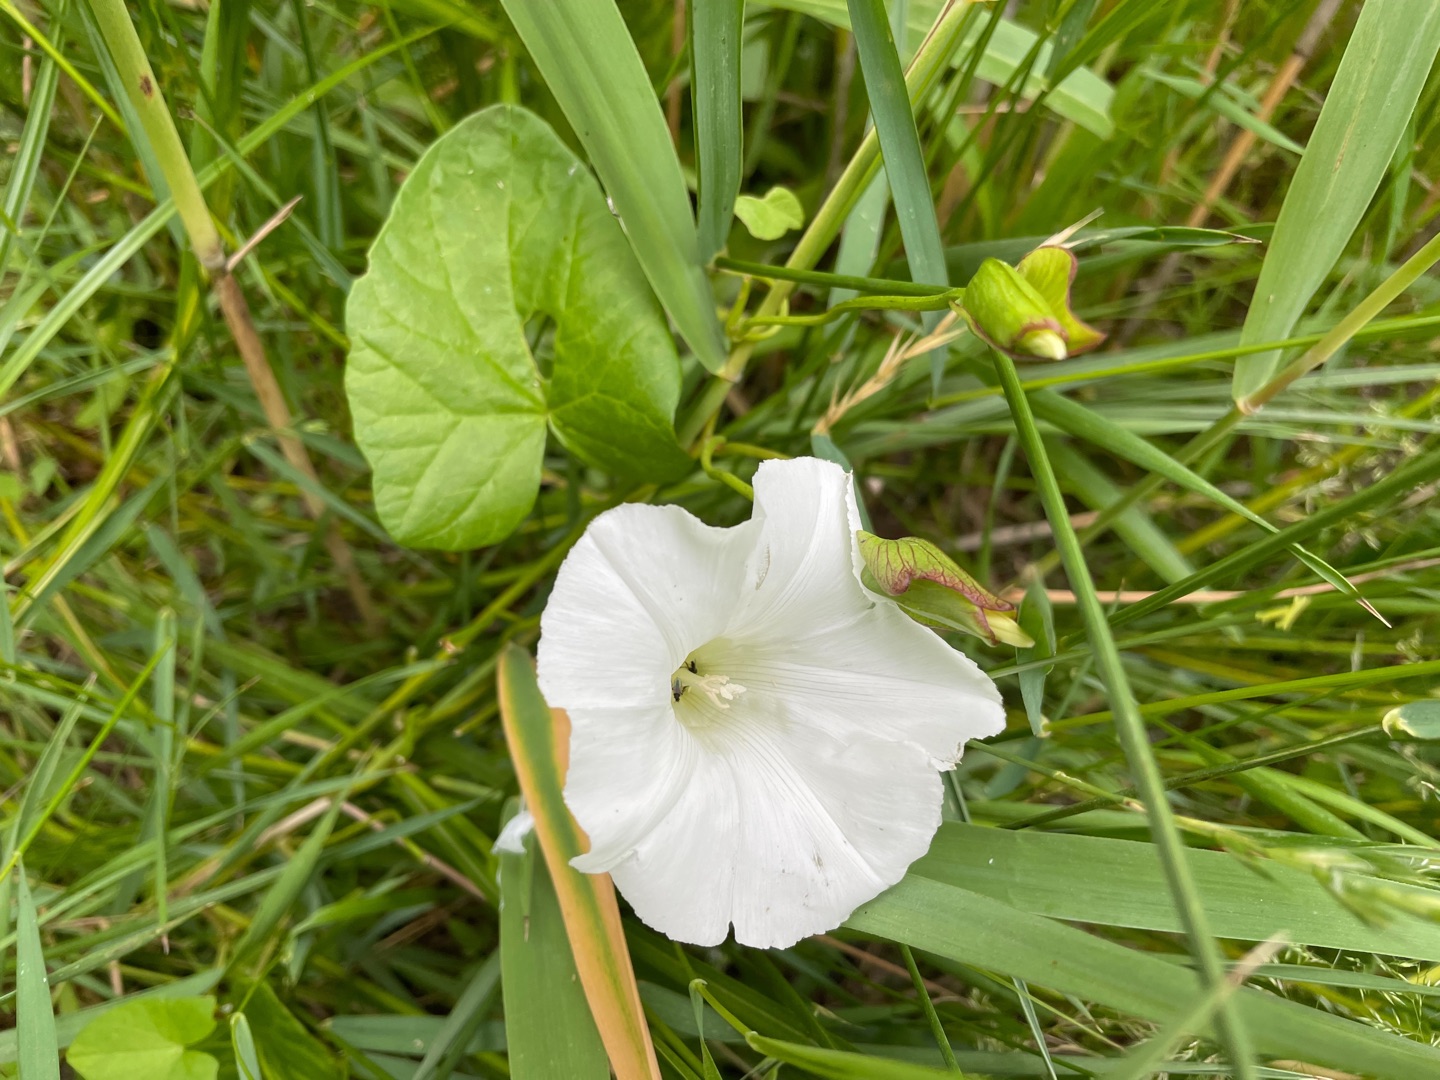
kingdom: Plantae
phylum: Tracheophyta
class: Magnoliopsida
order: Solanales
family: Convolvulaceae
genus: Calystegia
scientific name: Calystegia sepium
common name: Gærde-snerle
